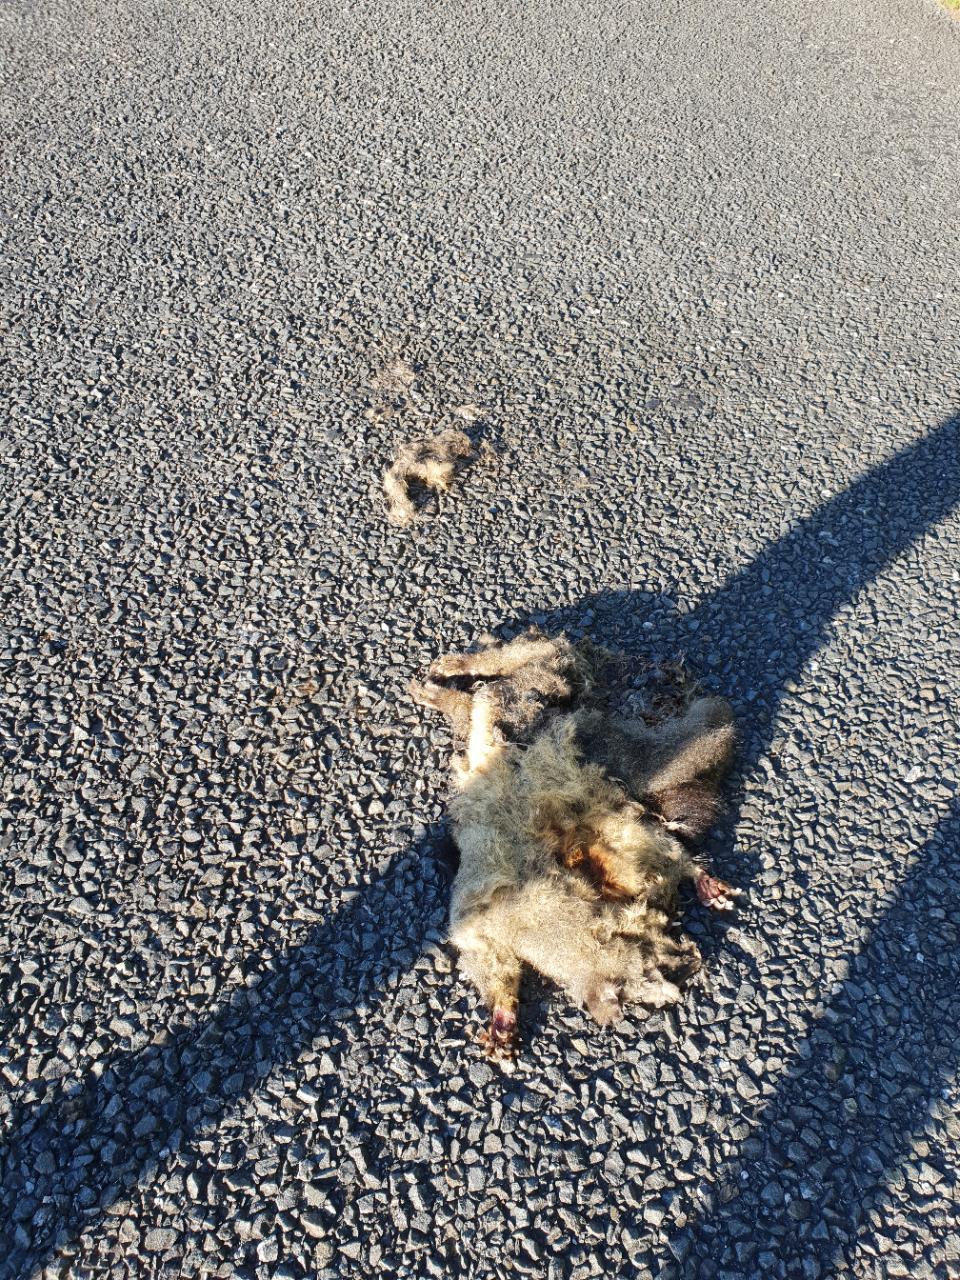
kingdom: Animalia
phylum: Chordata
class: Mammalia
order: Diprotodontia
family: Phalangeridae
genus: Trichosurus
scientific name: Trichosurus vulpecula
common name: Common brushtail
